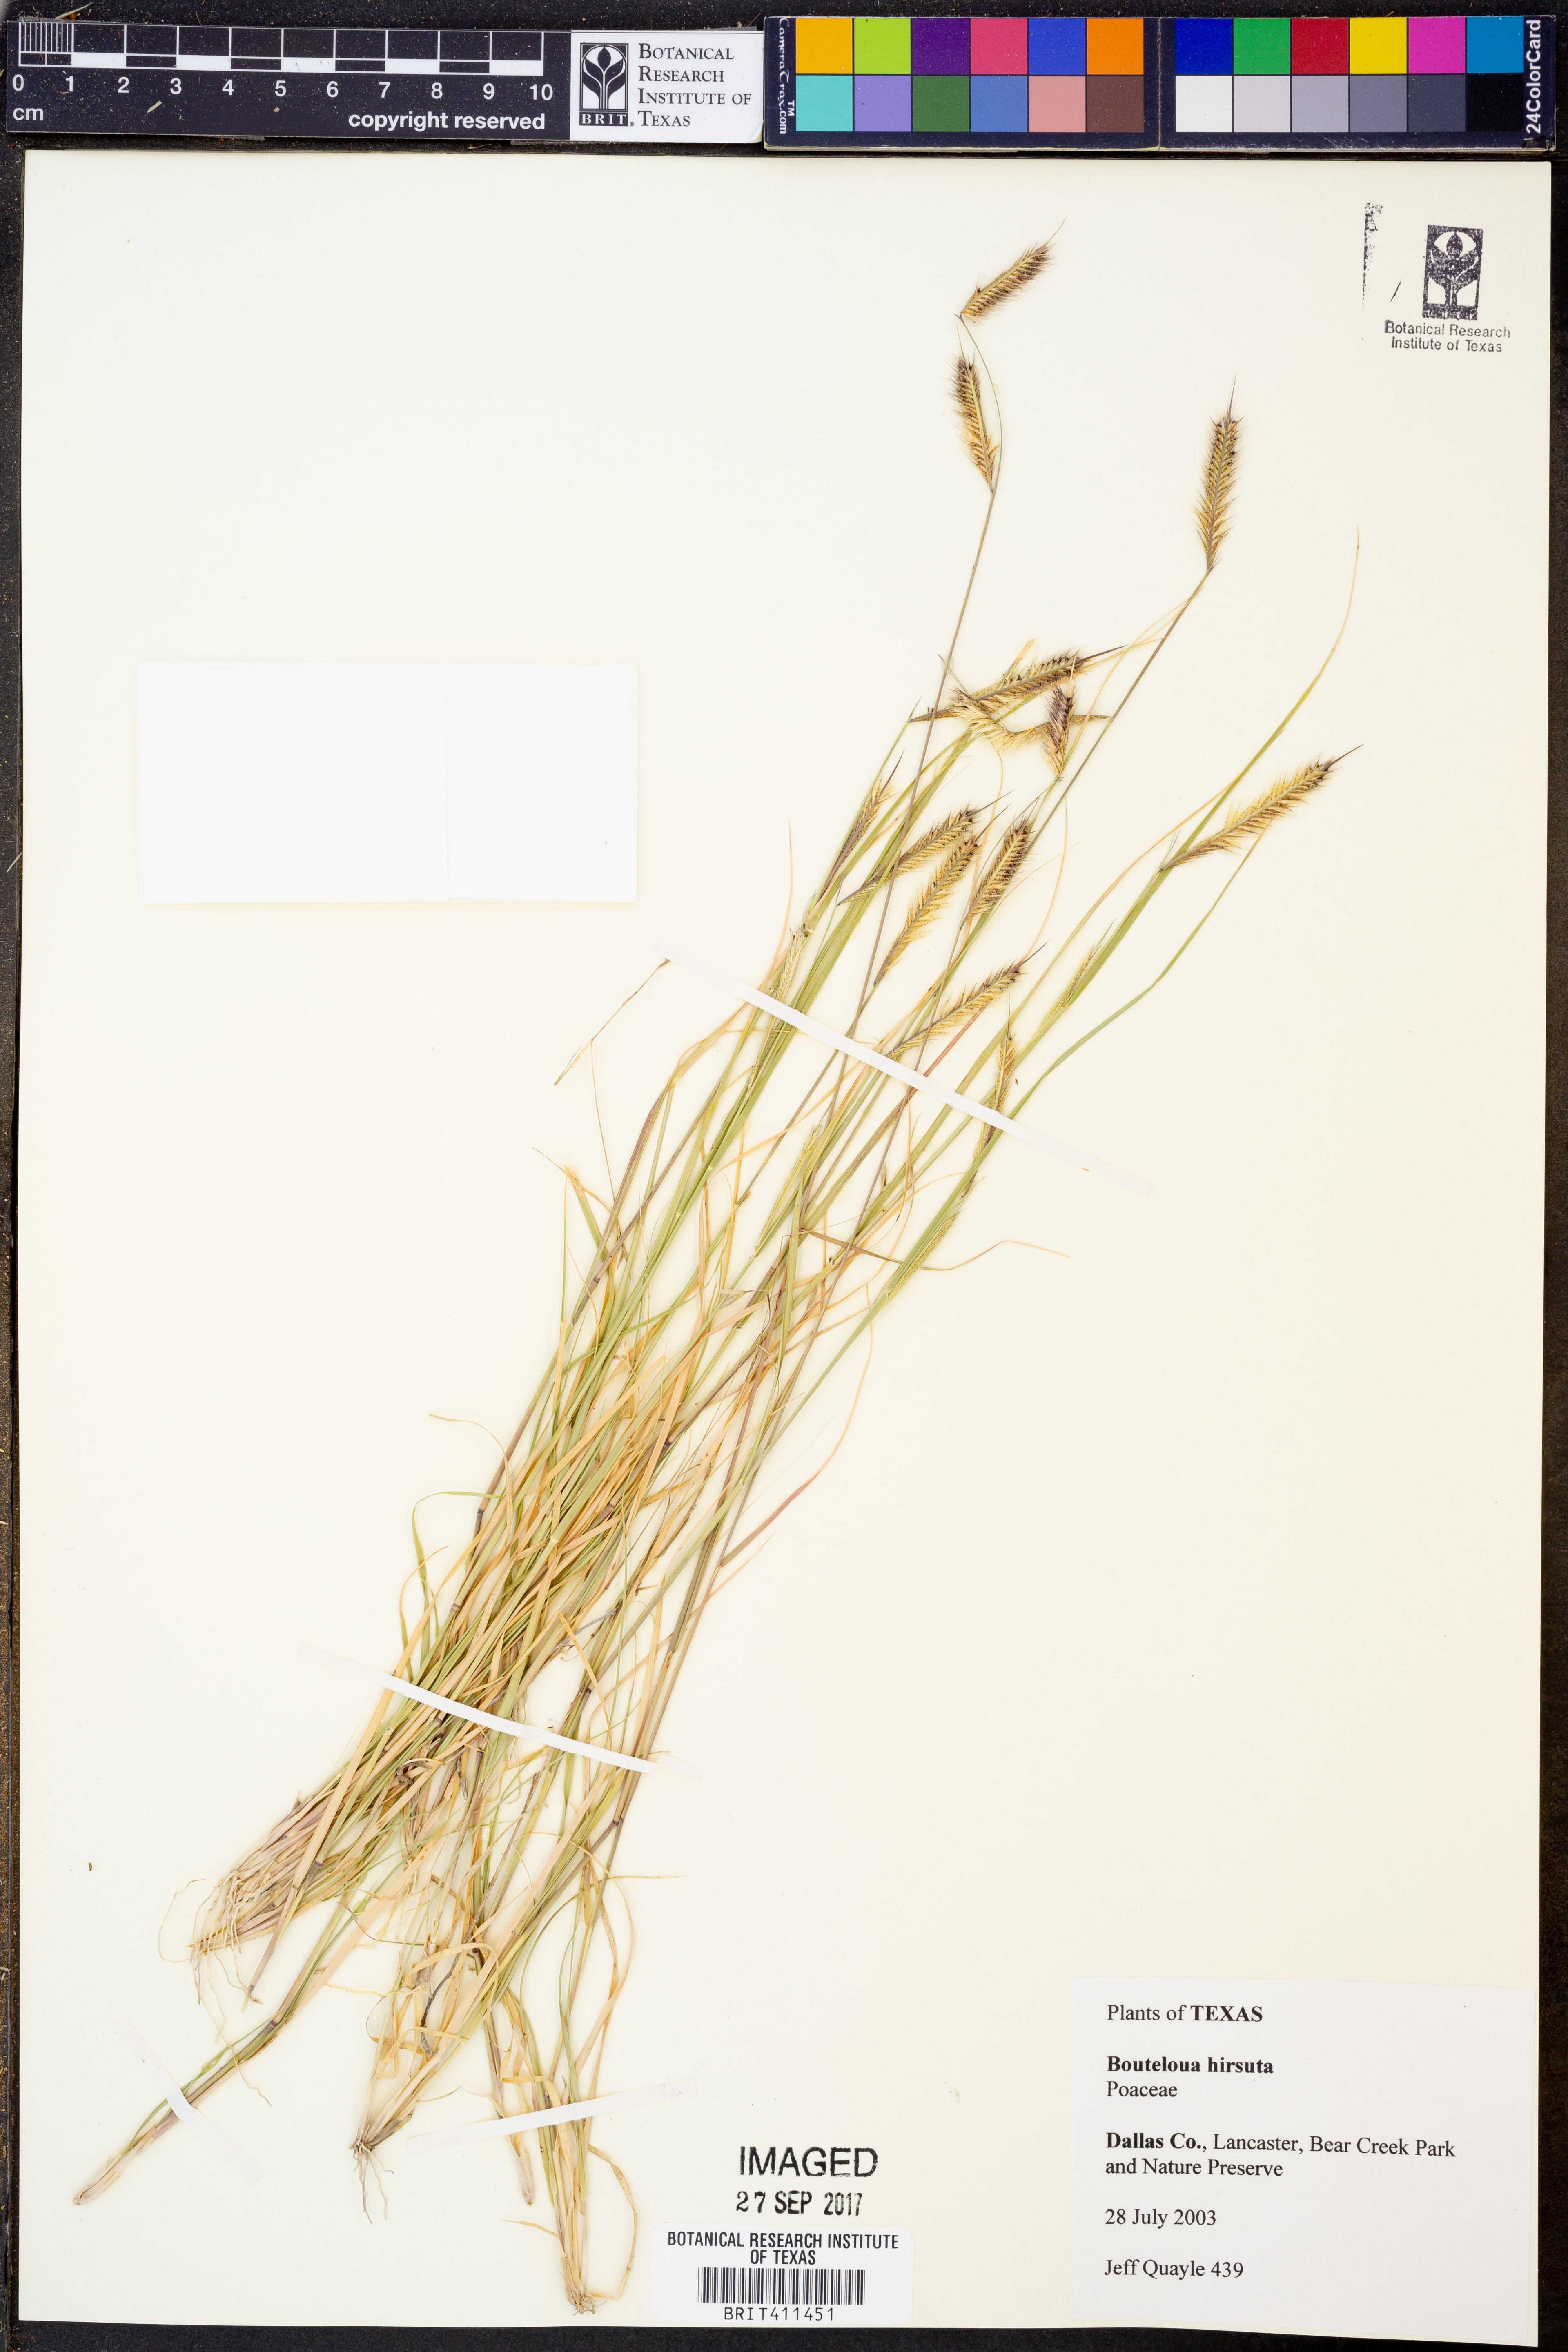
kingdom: Plantae
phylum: Tracheophyta
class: Liliopsida
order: Poales
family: Poaceae
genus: Bouteloua
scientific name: Bouteloua hirsuta
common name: Hairy grama
